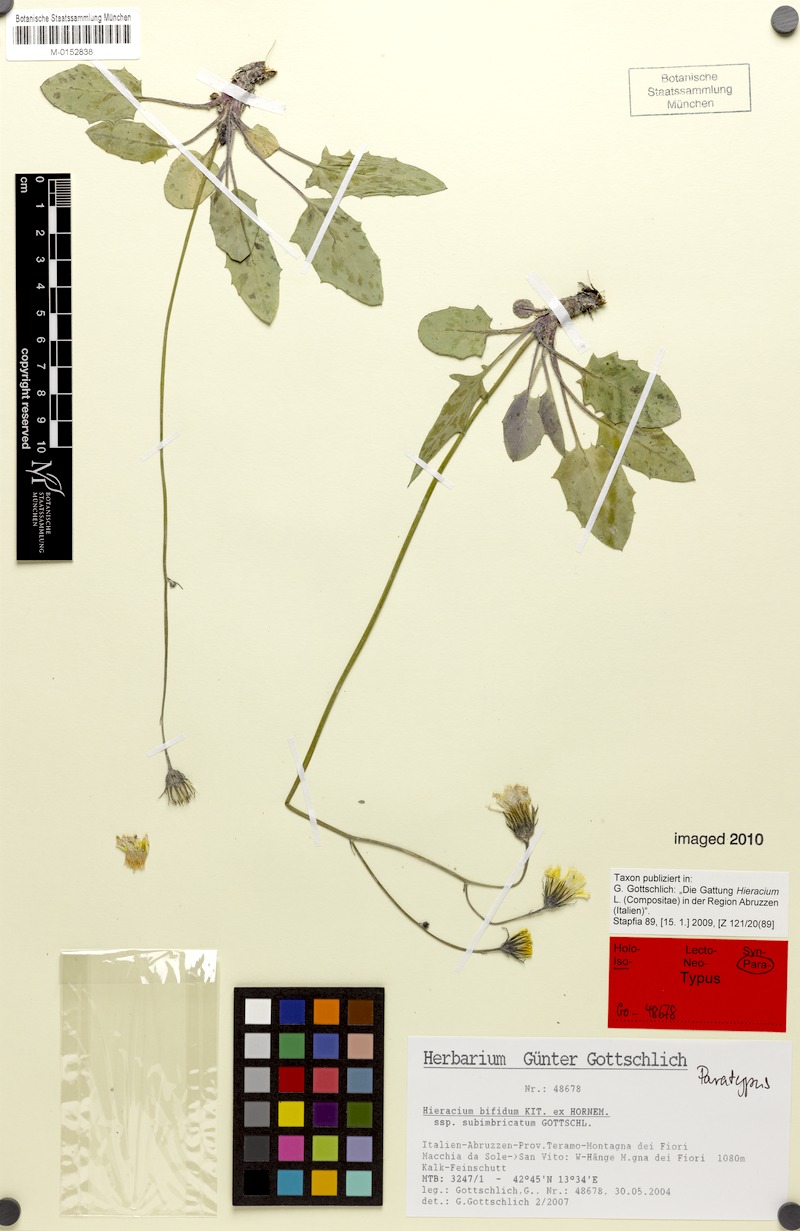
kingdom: Plantae
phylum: Tracheophyta
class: Magnoliopsida
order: Asterales
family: Asteraceae
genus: Hieracium
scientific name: Hieracium bifidum
